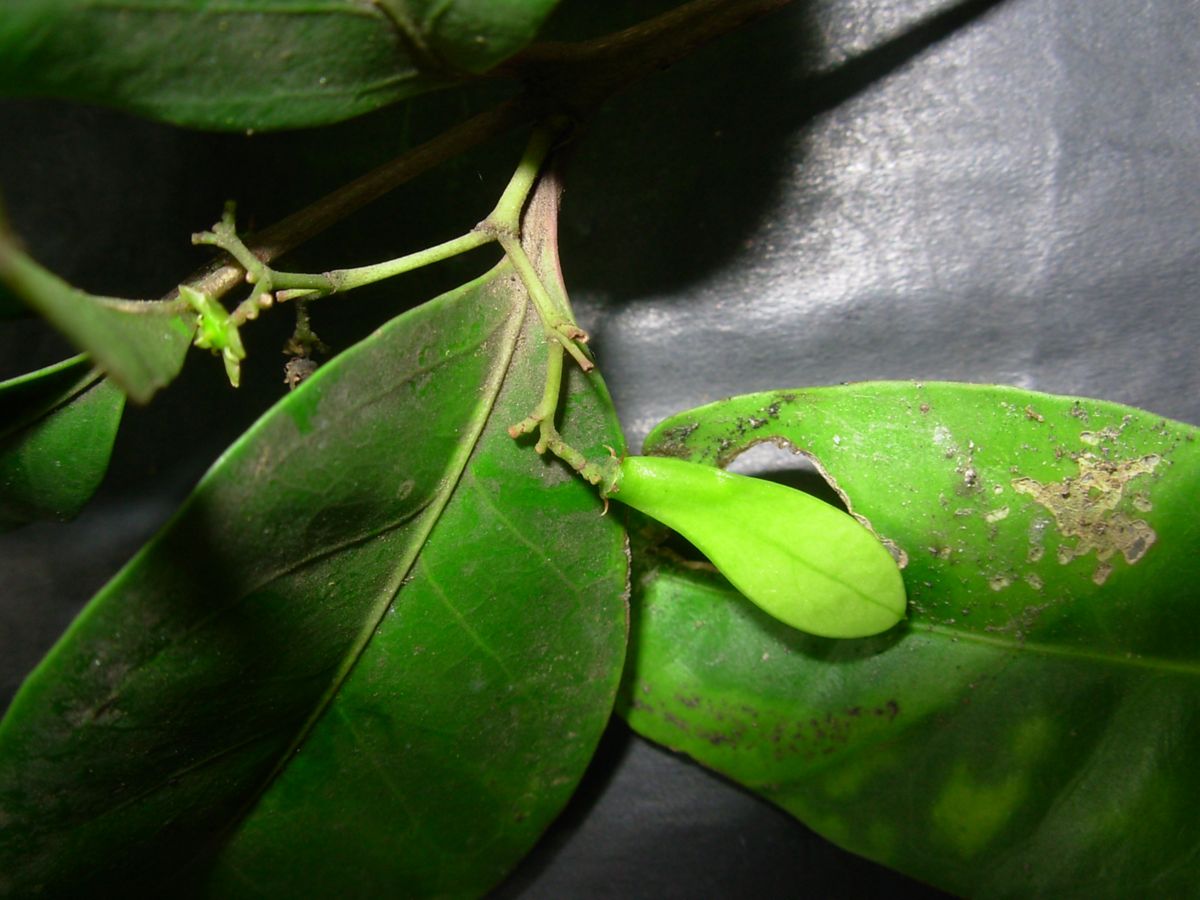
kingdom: Plantae
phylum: Tracheophyta
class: Magnoliopsida
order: Celastrales
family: Celastraceae
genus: Zinowiewia
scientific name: Zinowiewia integerrima
